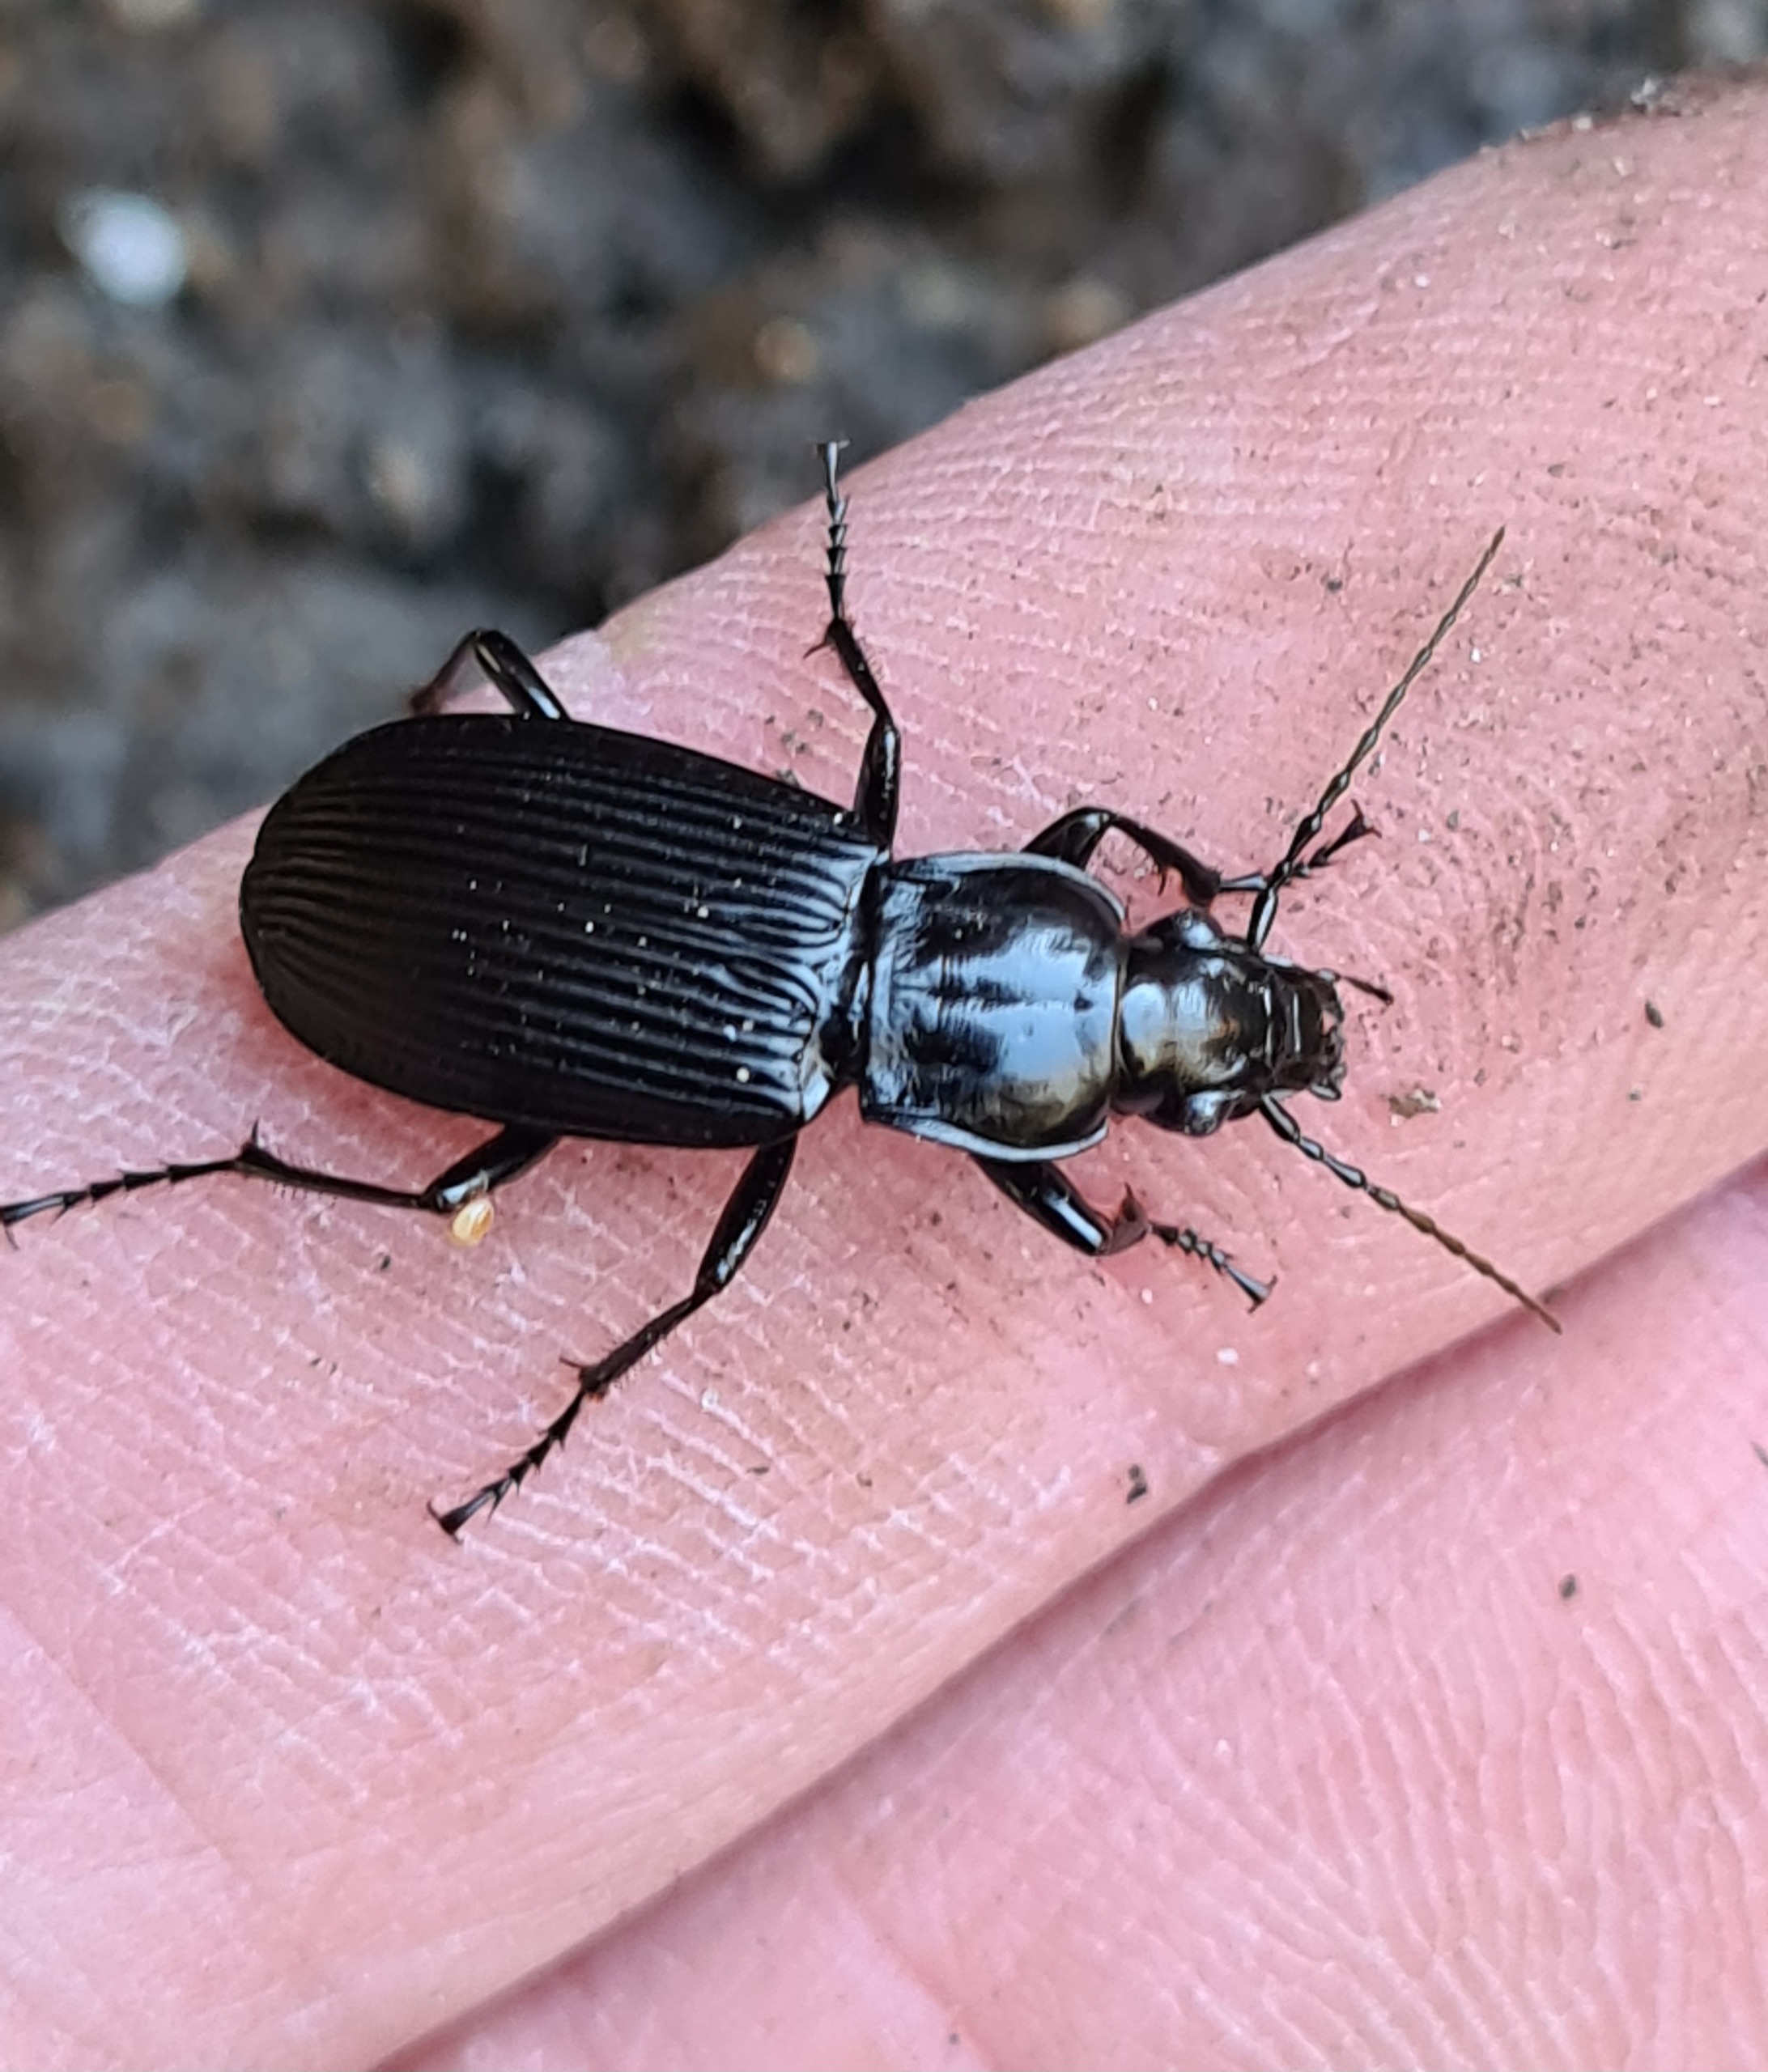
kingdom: Animalia
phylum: Arthropoda
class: Insecta
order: Coleoptera
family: Carabidae
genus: Pterostichus
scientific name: Pterostichus niger
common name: Skovjordløber
